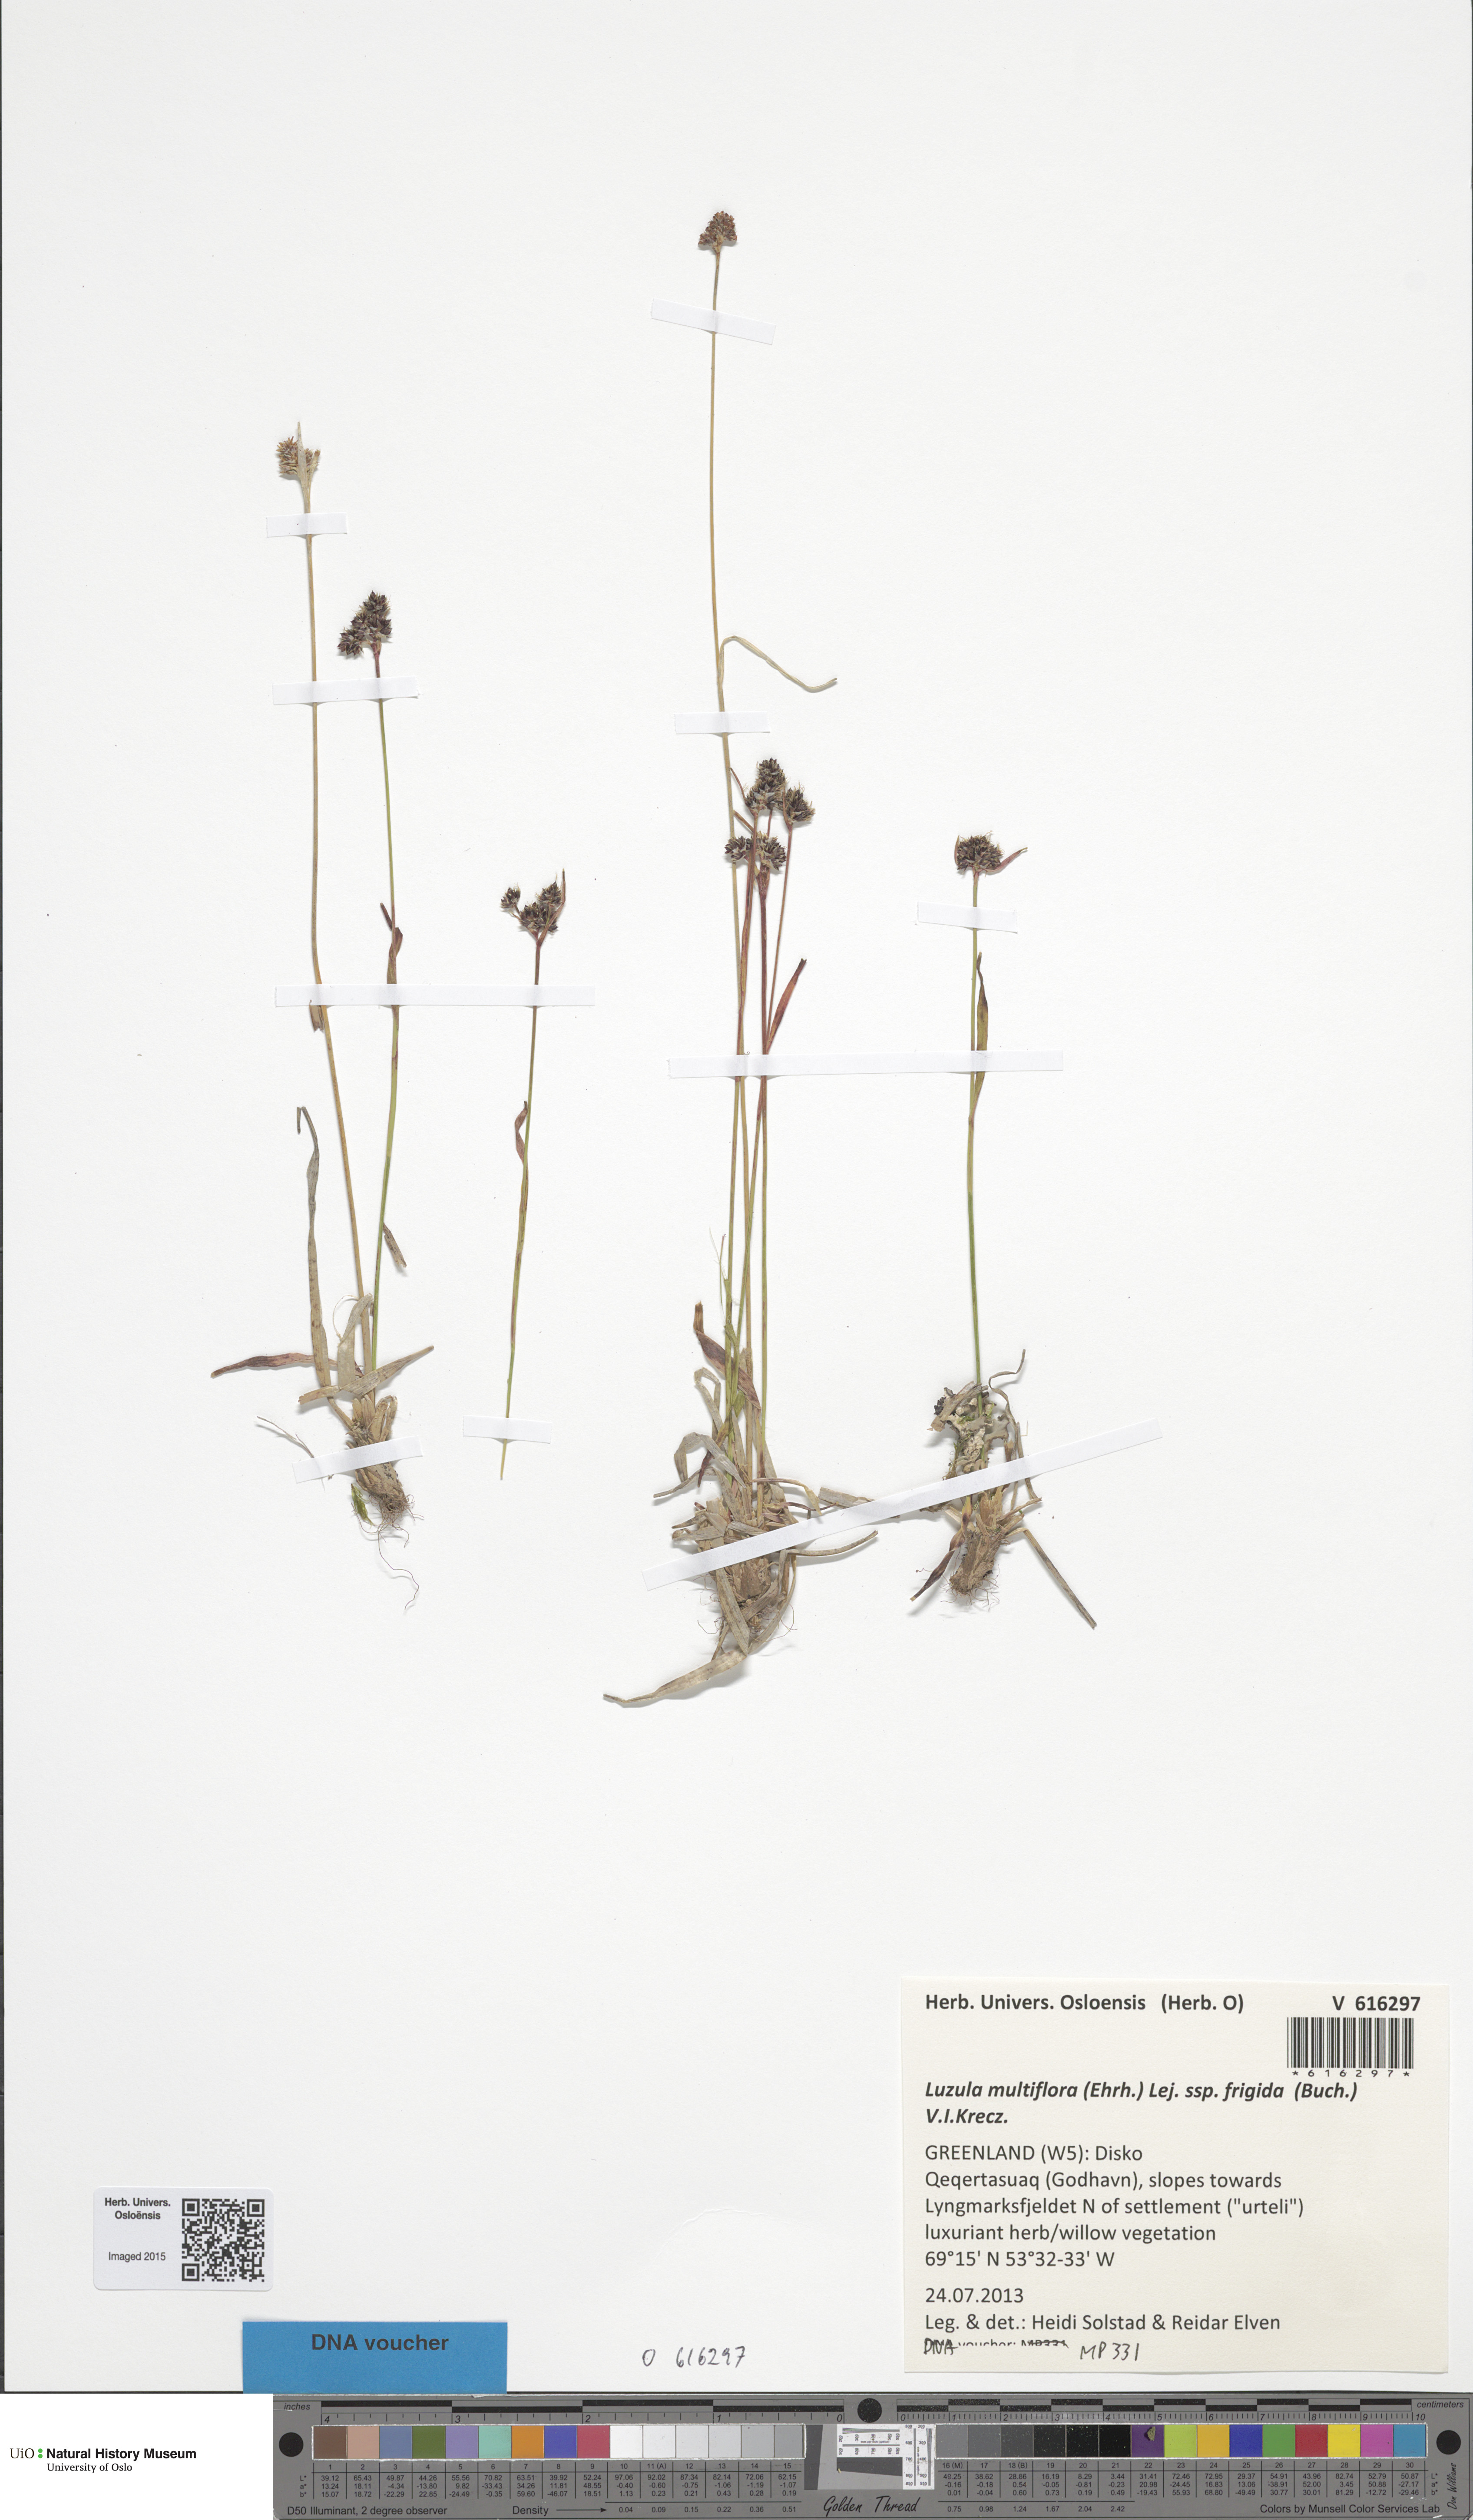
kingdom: Plantae
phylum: Tracheophyta
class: Liliopsida
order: Poales
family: Juncaceae
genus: Luzula
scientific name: Luzula multiflora
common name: Heath wood-rush
